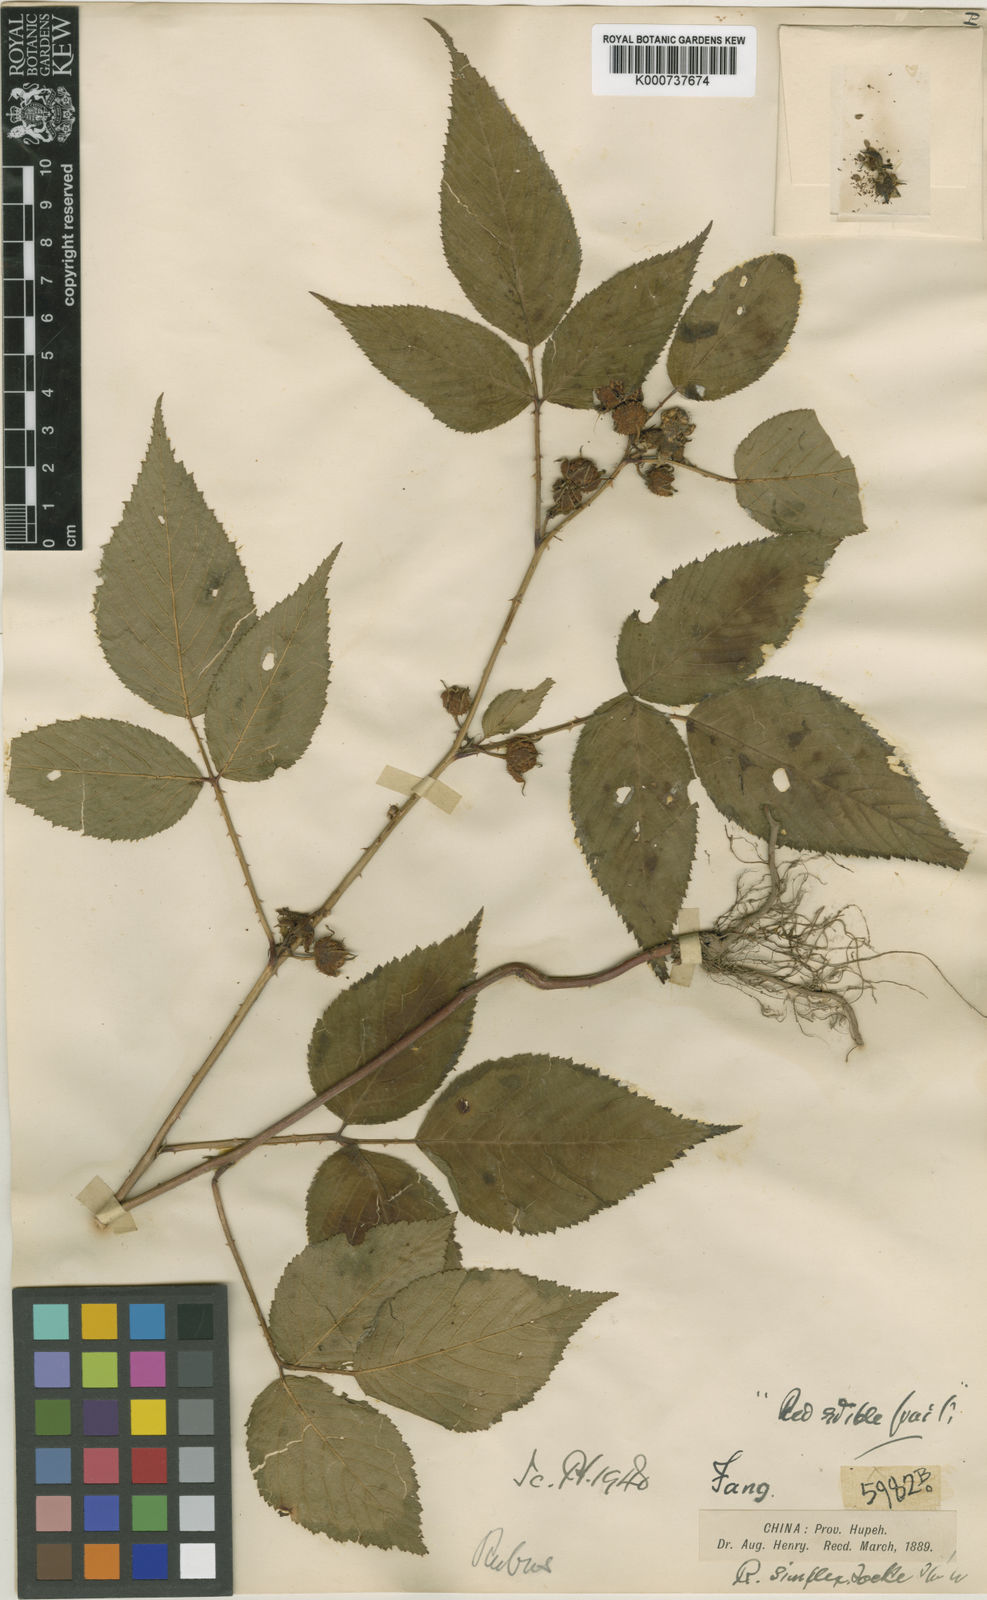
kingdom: Plantae
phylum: Tracheophyta
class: Magnoliopsida
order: Rosales
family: Rosaceae
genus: Rubus
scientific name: Rubus simplex
